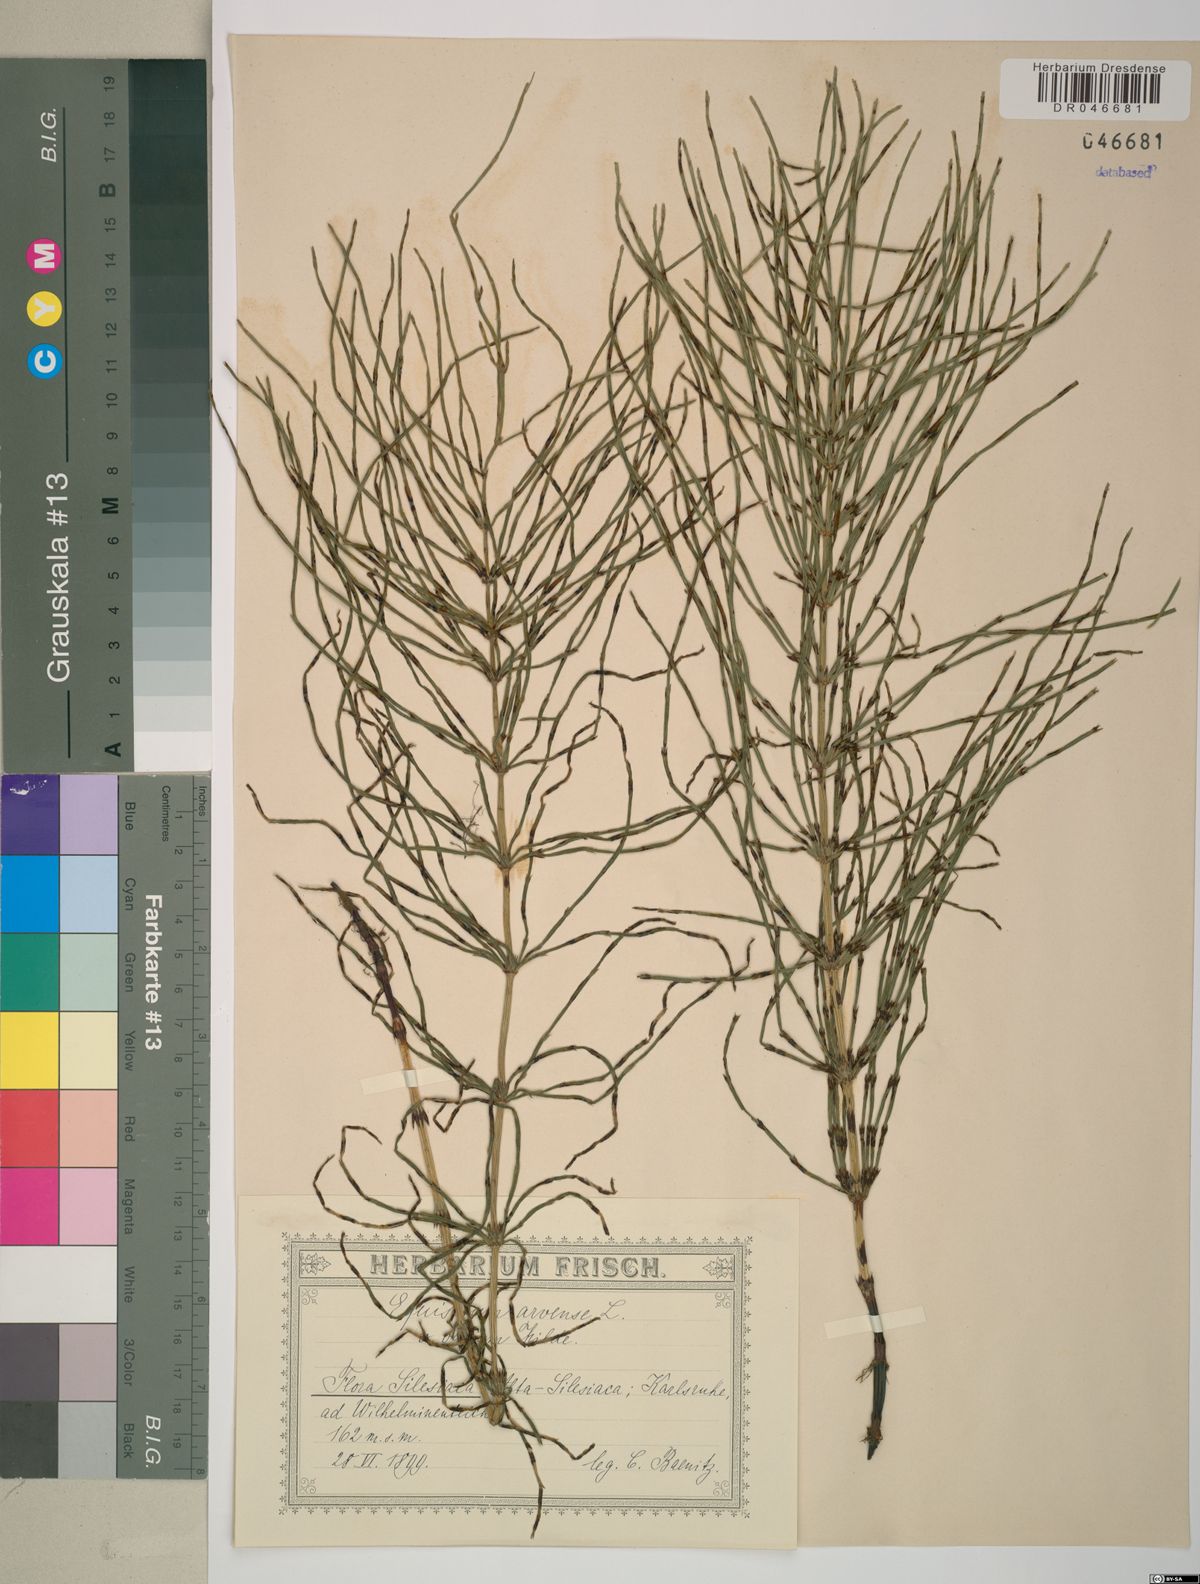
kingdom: Plantae
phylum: Tracheophyta
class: Polypodiopsida
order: Equisetales
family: Equisetaceae
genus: Equisetum
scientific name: Equisetum arvense
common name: Field horsetail
